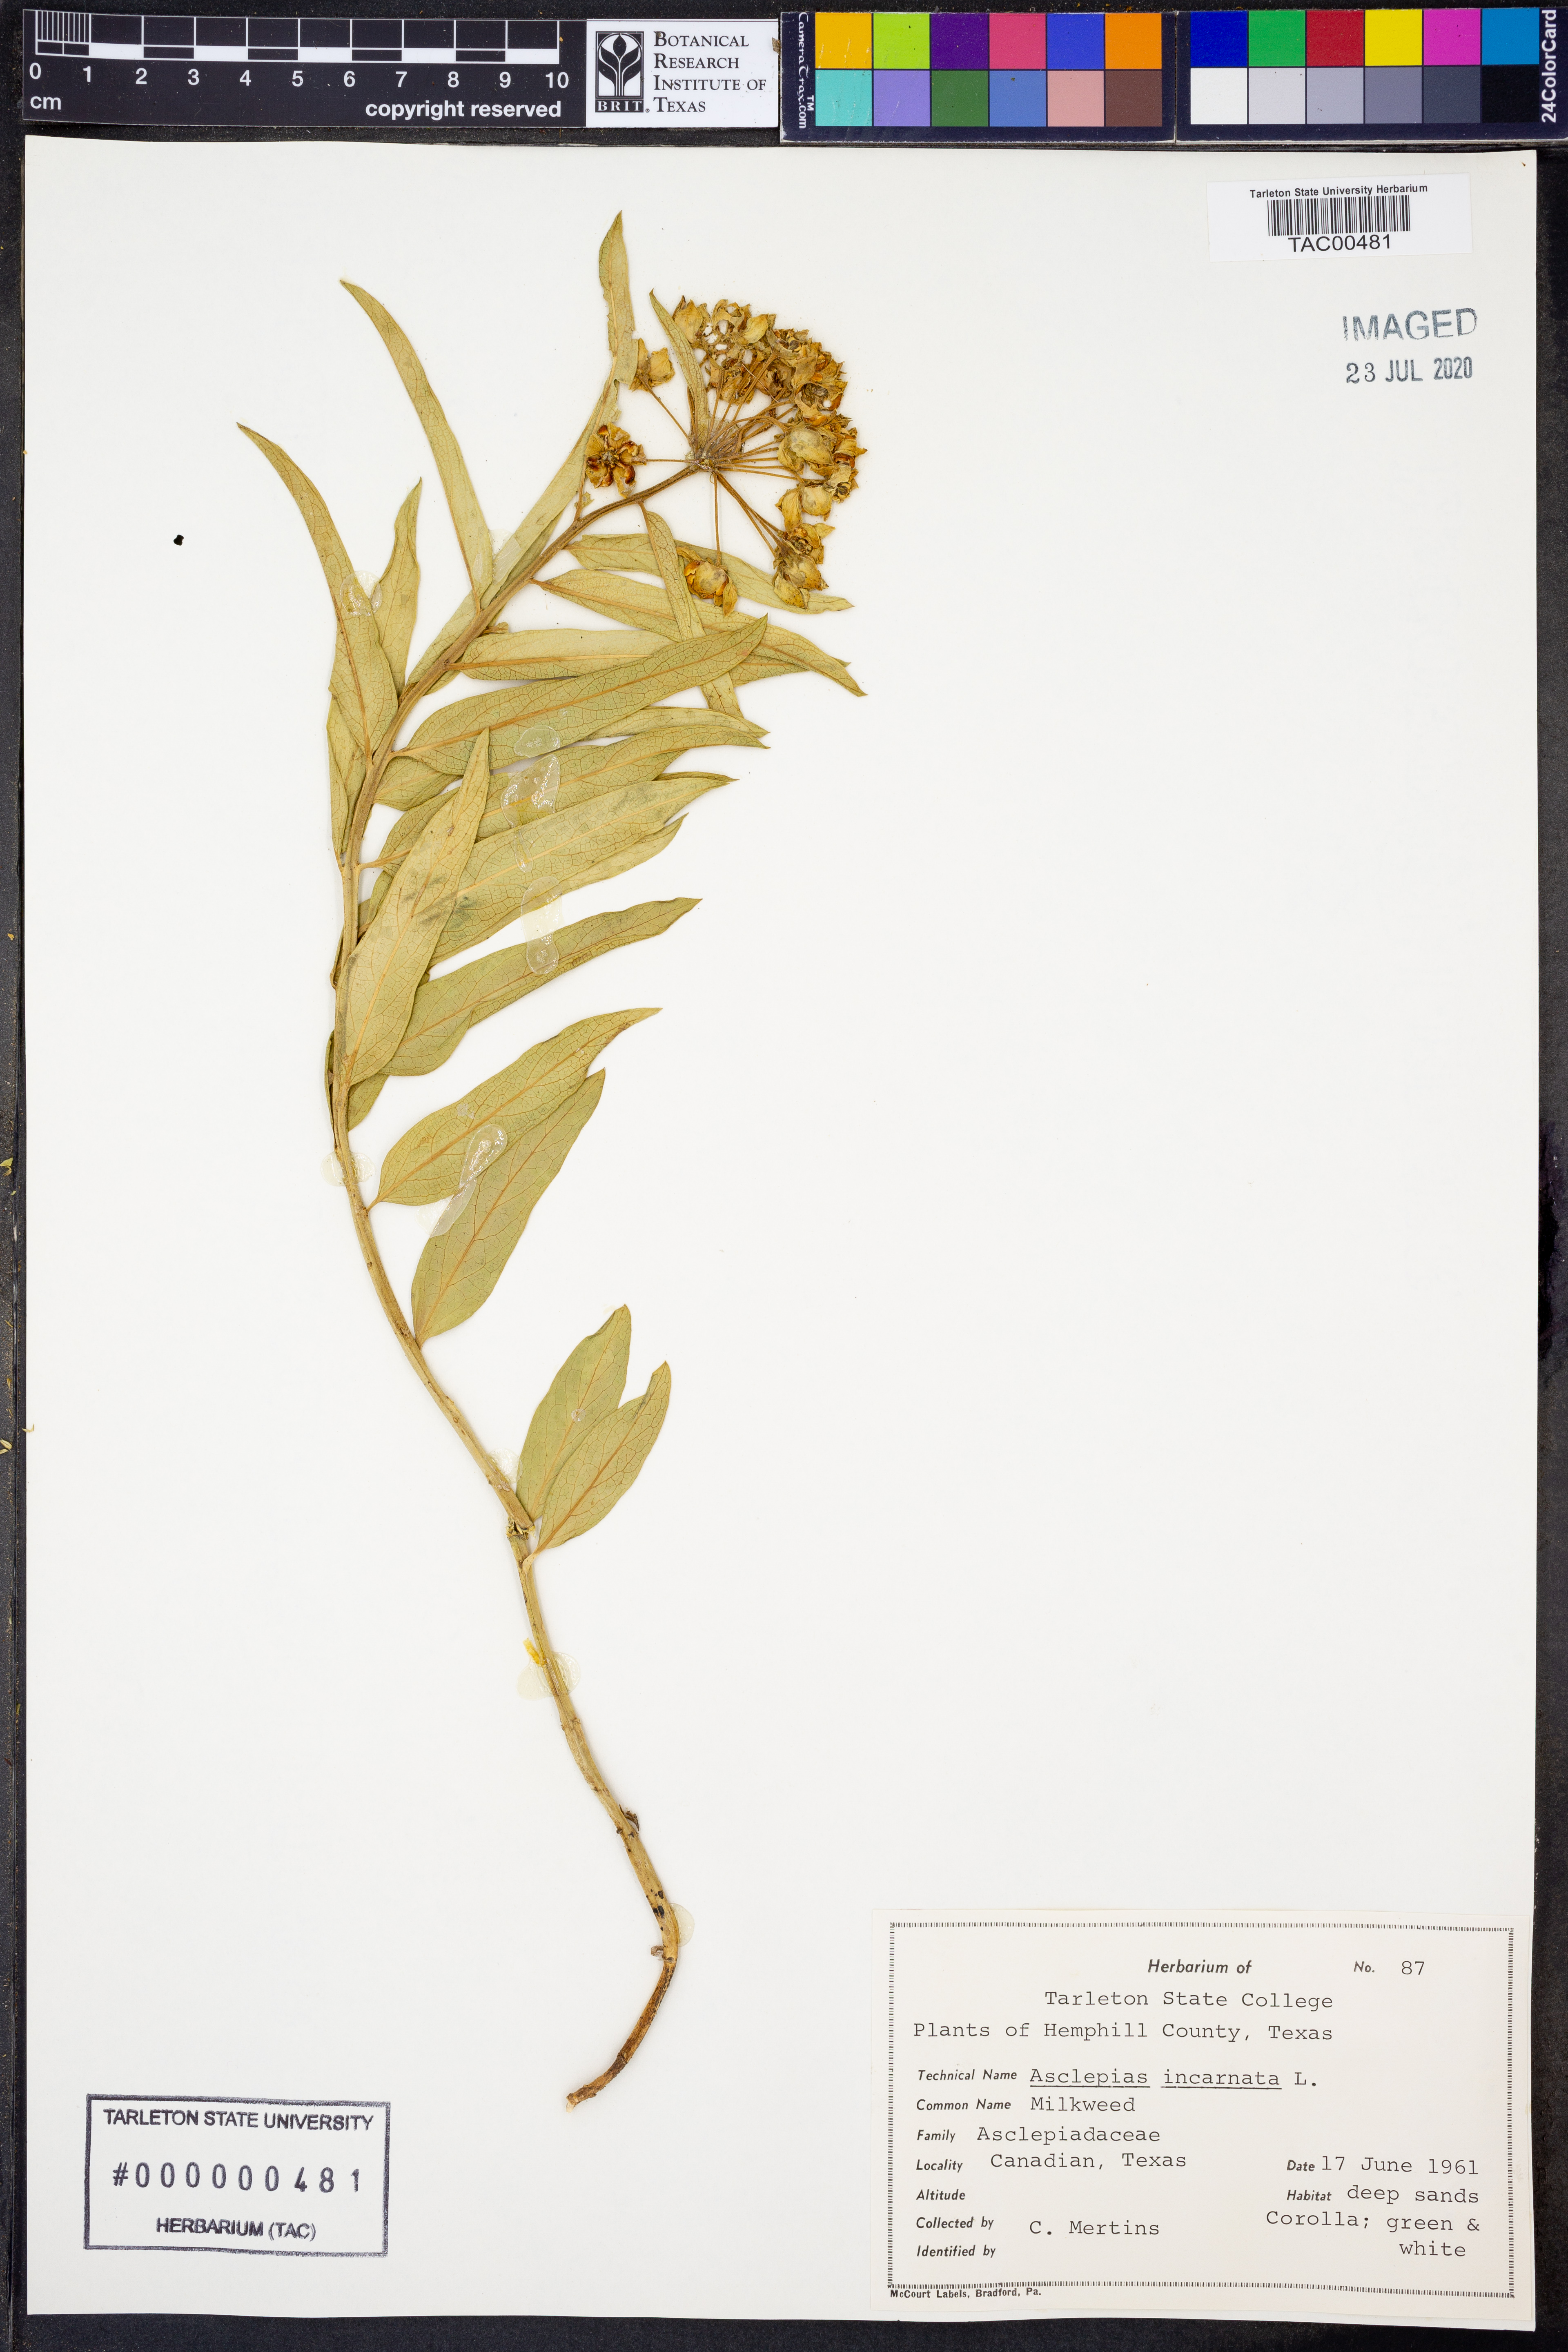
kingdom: Plantae
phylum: Tracheophyta
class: Magnoliopsida
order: Gentianales
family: Apocynaceae
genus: Asclepias
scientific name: Asclepias incarnata
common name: Swamp milkweed
